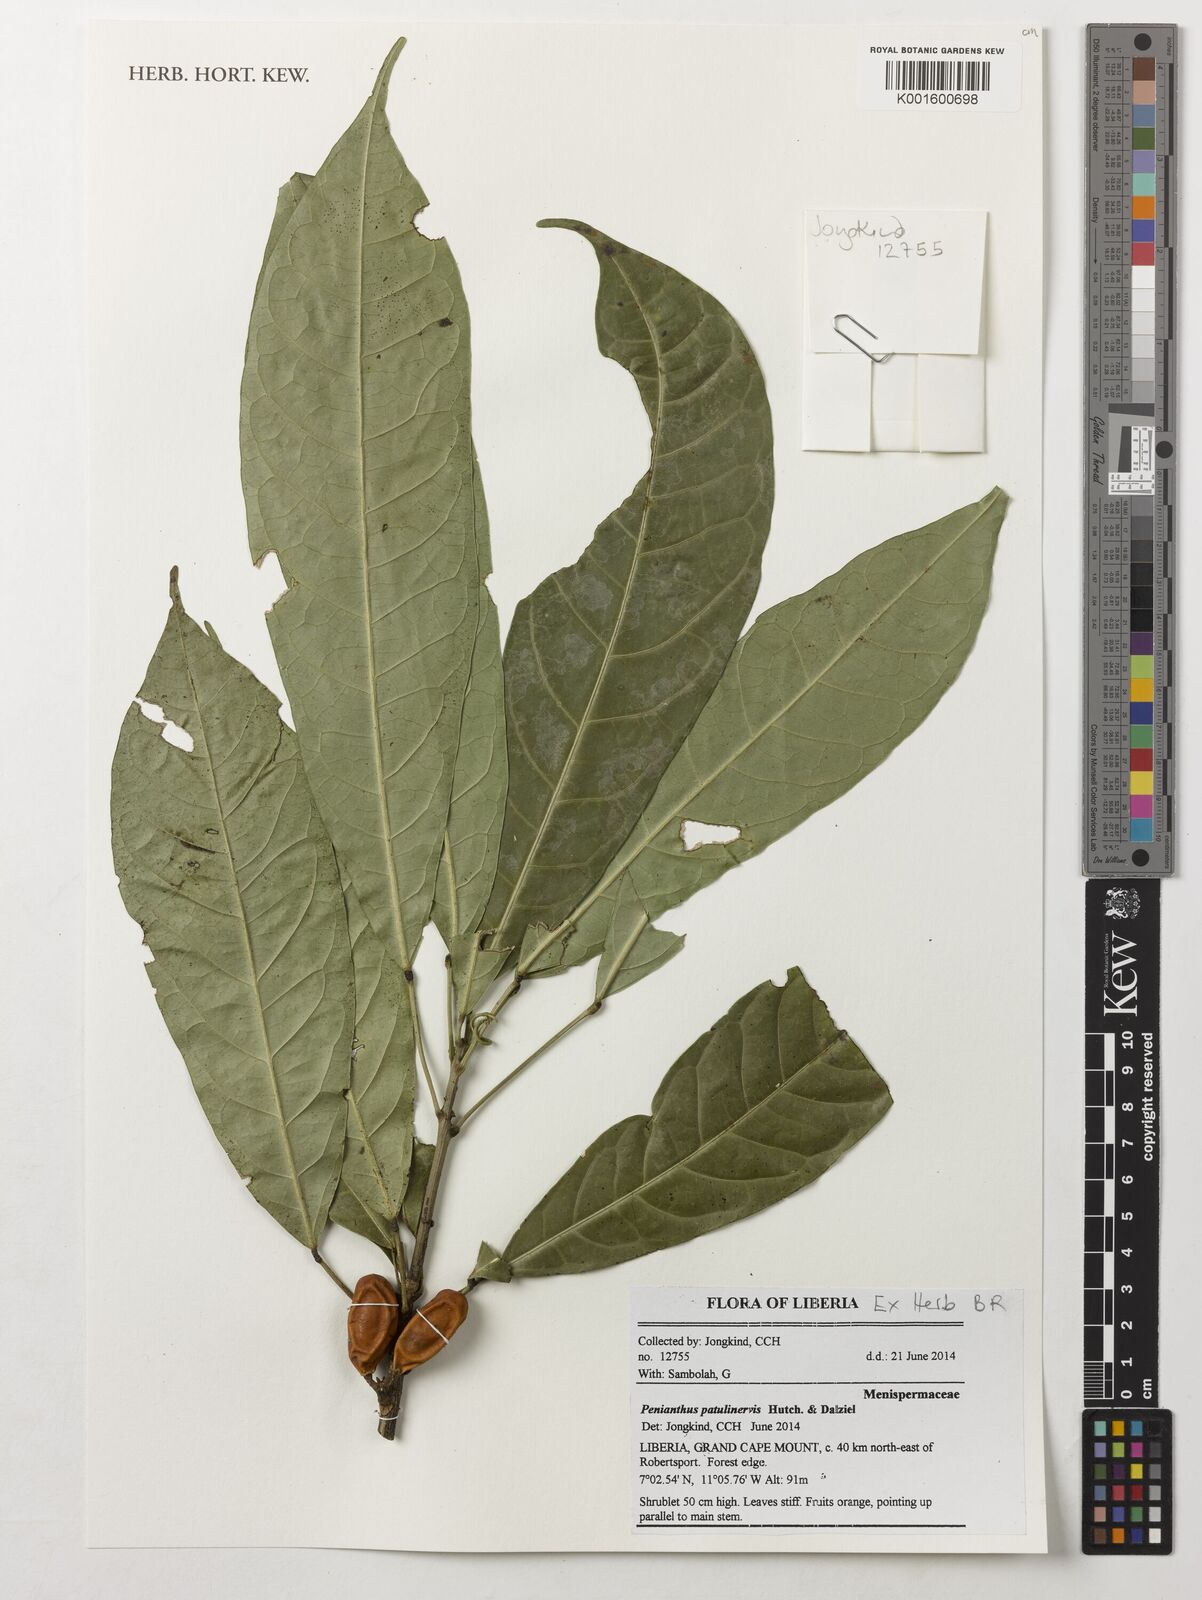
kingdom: Plantae
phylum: Tracheophyta
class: Magnoliopsida
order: Ranunculales
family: Menispermaceae
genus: Penianthus
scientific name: Penianthus patulinervis
